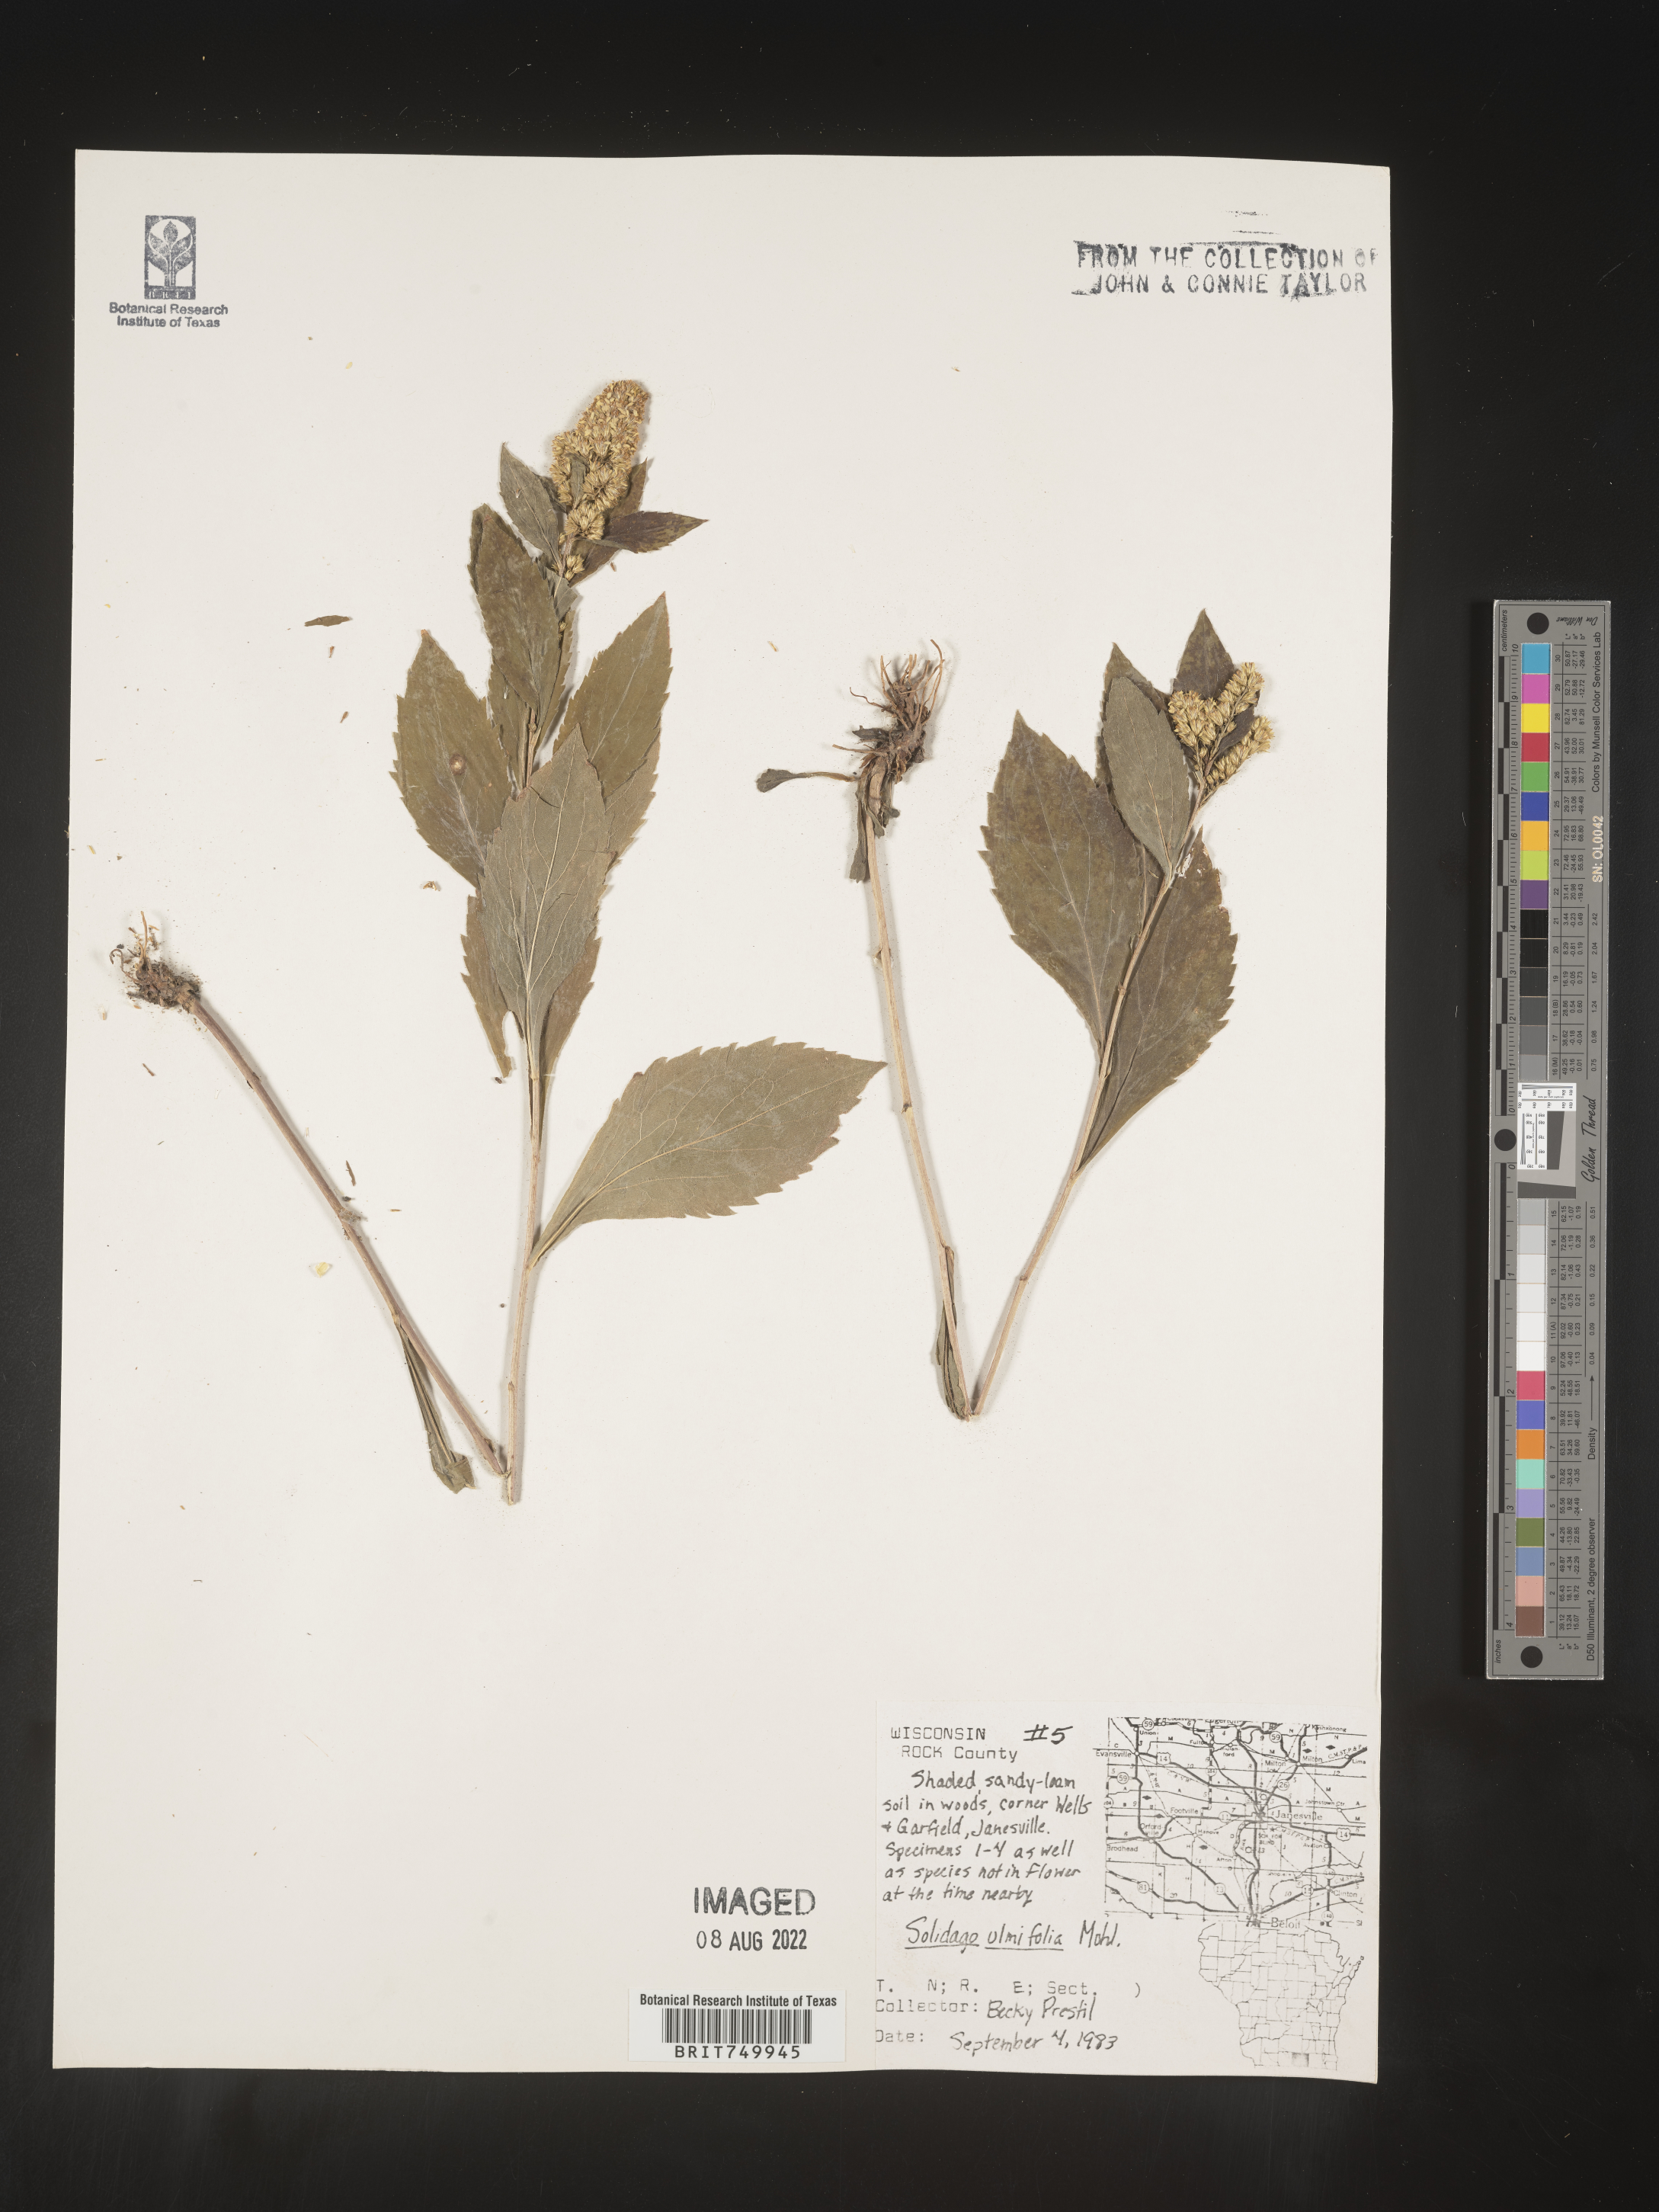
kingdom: Plantae
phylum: Tracheophyta
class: Magnoliopsida
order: Asterales
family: Asteraceae
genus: Solidago
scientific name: Solidago ulmifolia
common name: Elm-leaf goldenrod
